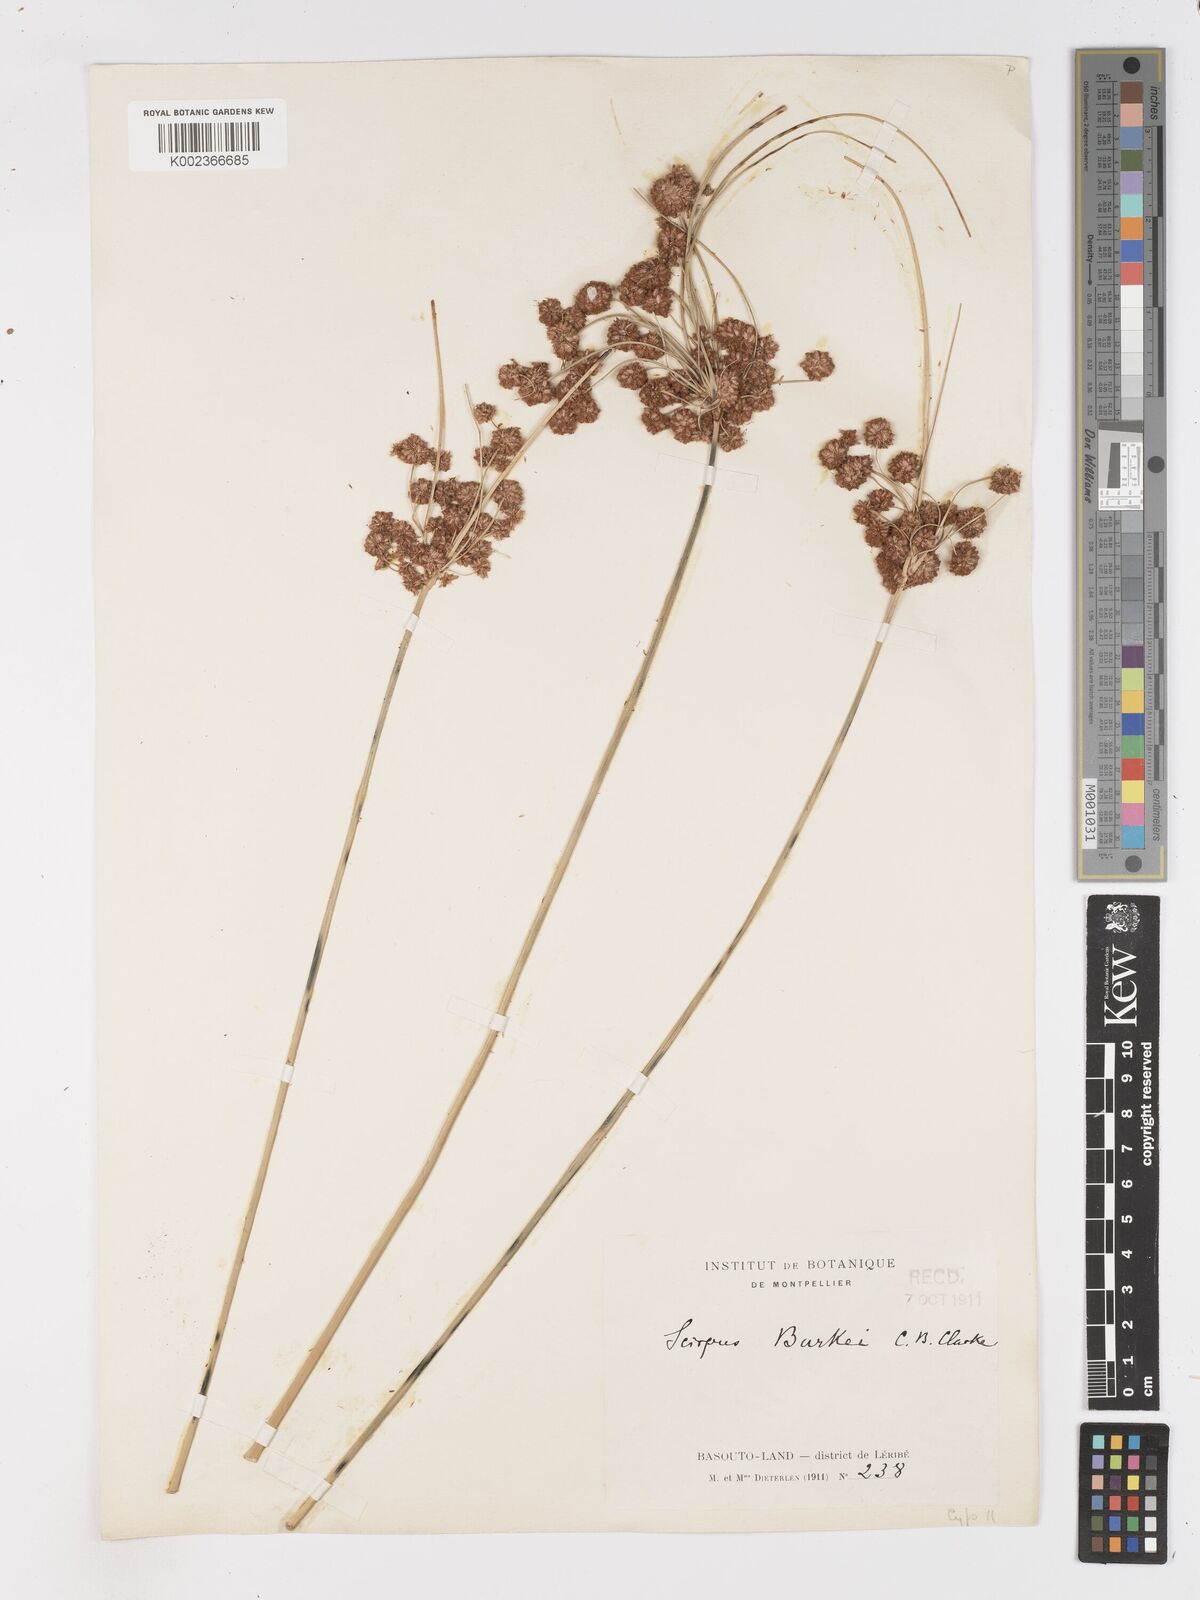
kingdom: Plantae
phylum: Tracheophyta
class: Liliopsida
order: Poales
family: Cyperaceae
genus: Scirpoides
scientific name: Scirpoides burkei
